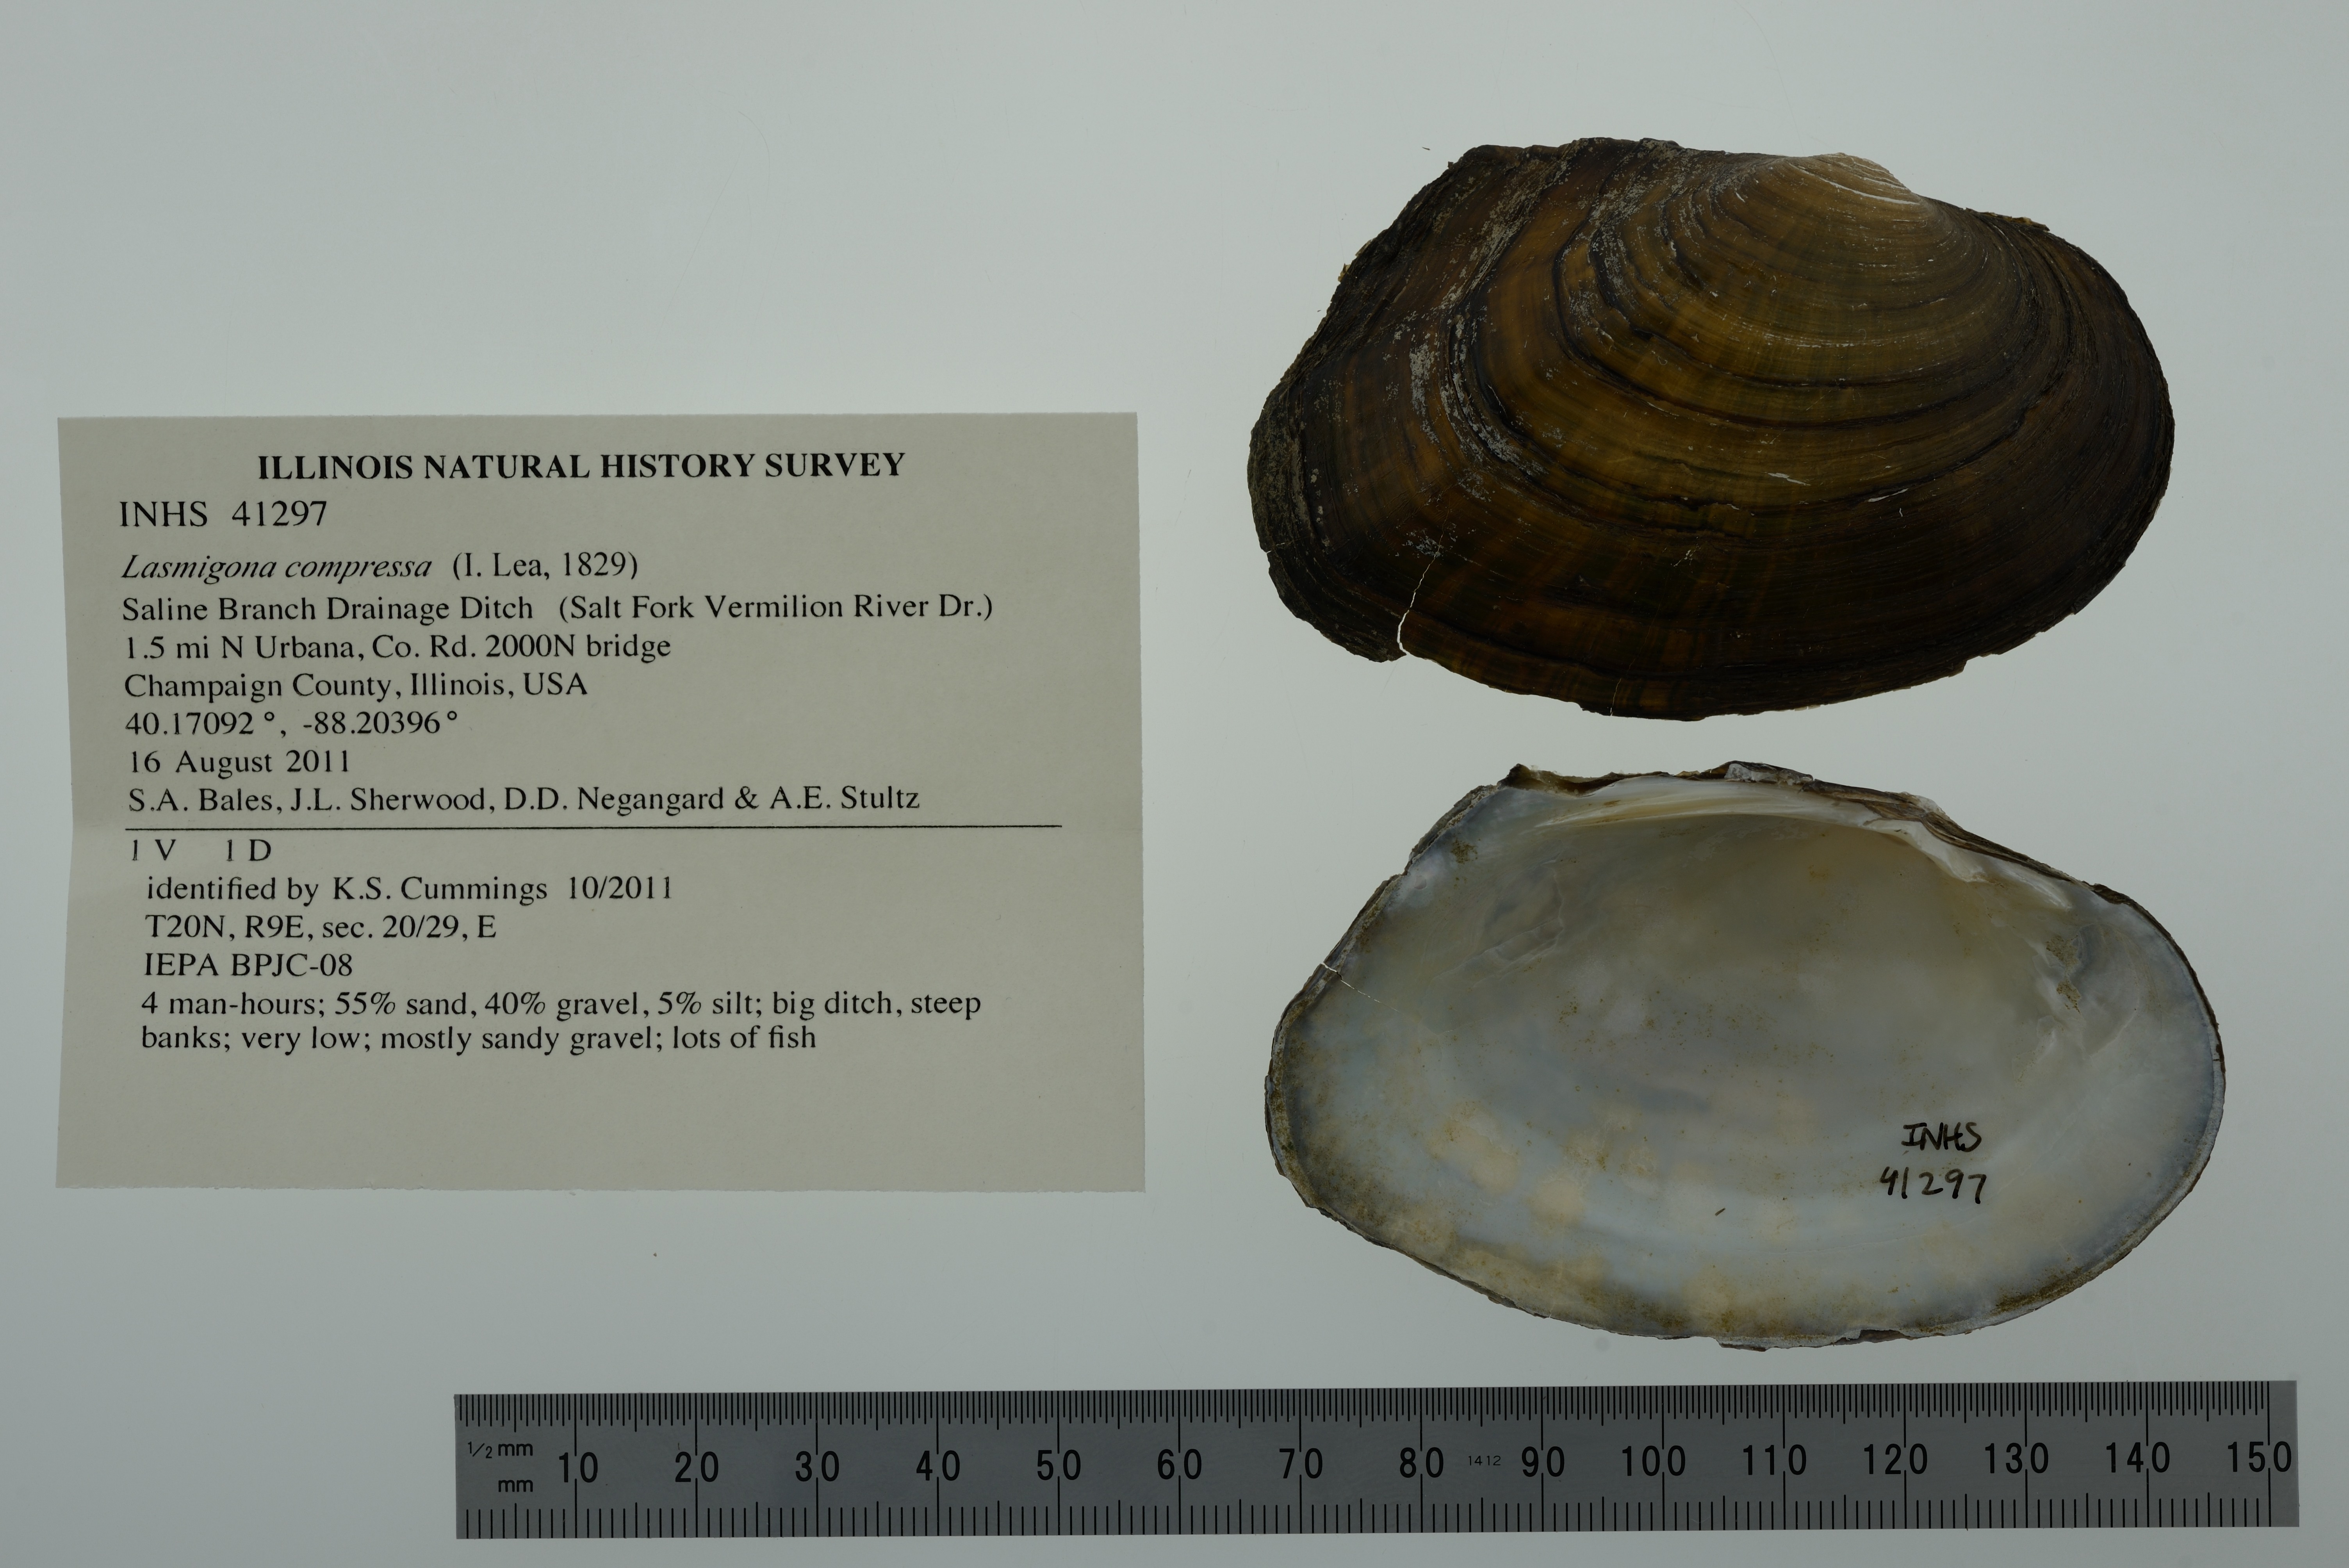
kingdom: Animalia
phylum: Mollusca
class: Bivalvia
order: Unionida
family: Unionidae
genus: Lasmigona
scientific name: Lasmigona compressa
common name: Creek heelsplitter
